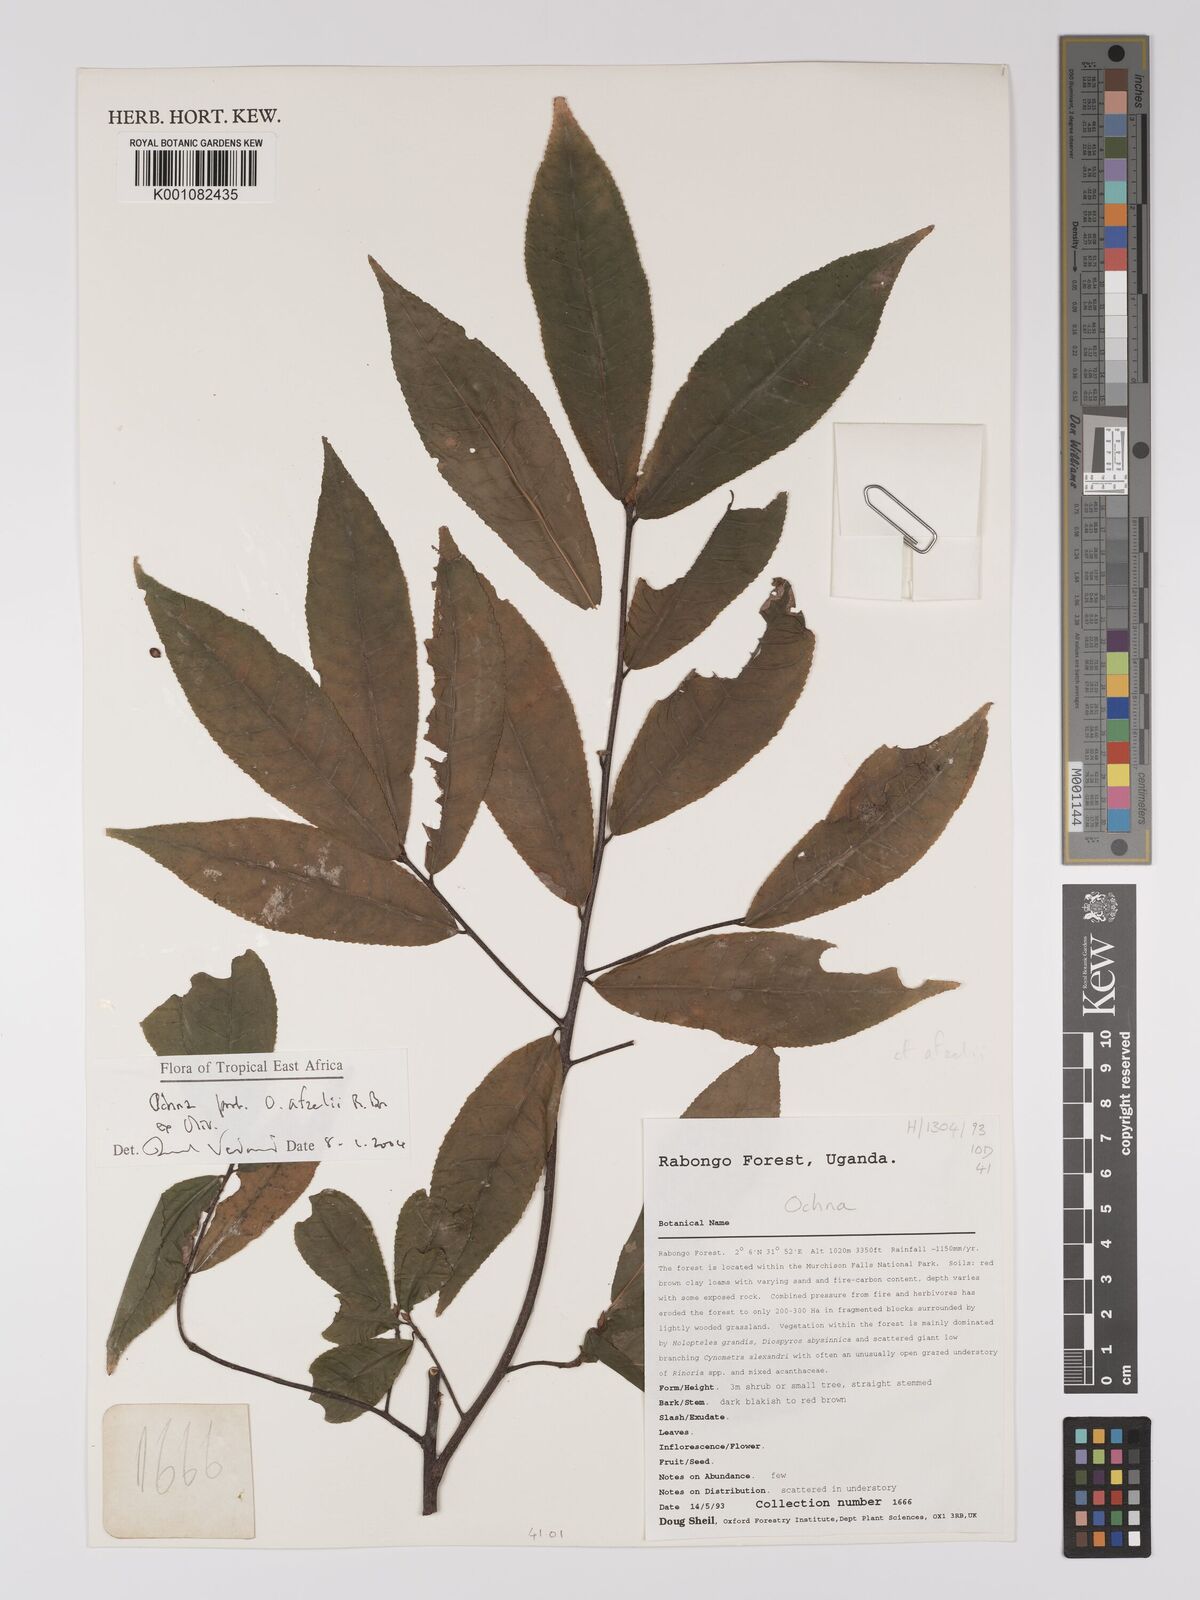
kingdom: Plantae
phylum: Tracheophyta
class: Magnoliopsida
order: Malpighiales
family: Ochnaceae
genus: Ochna
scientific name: Ochna afzelii
